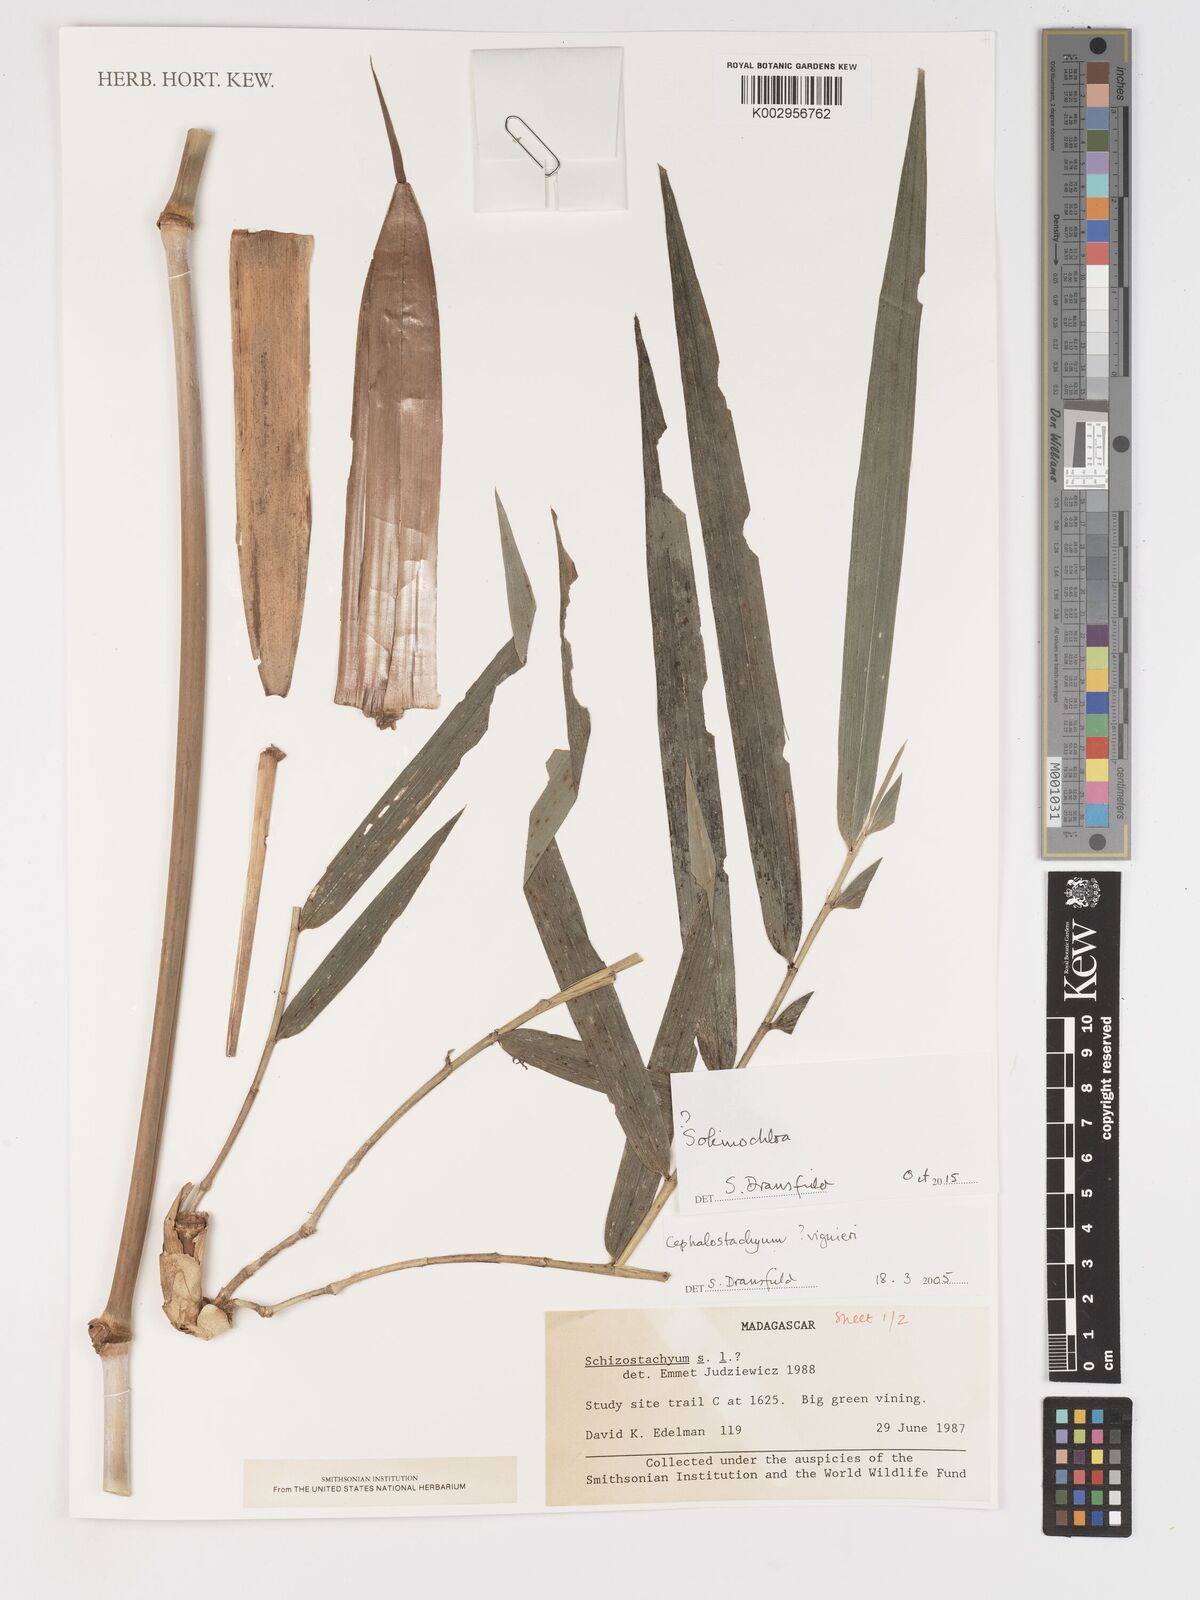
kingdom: Plantae
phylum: Tracheophyta
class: Liliopsida
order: Poales
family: Poaceae
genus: Sokinochloa
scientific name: Sokinochloa
